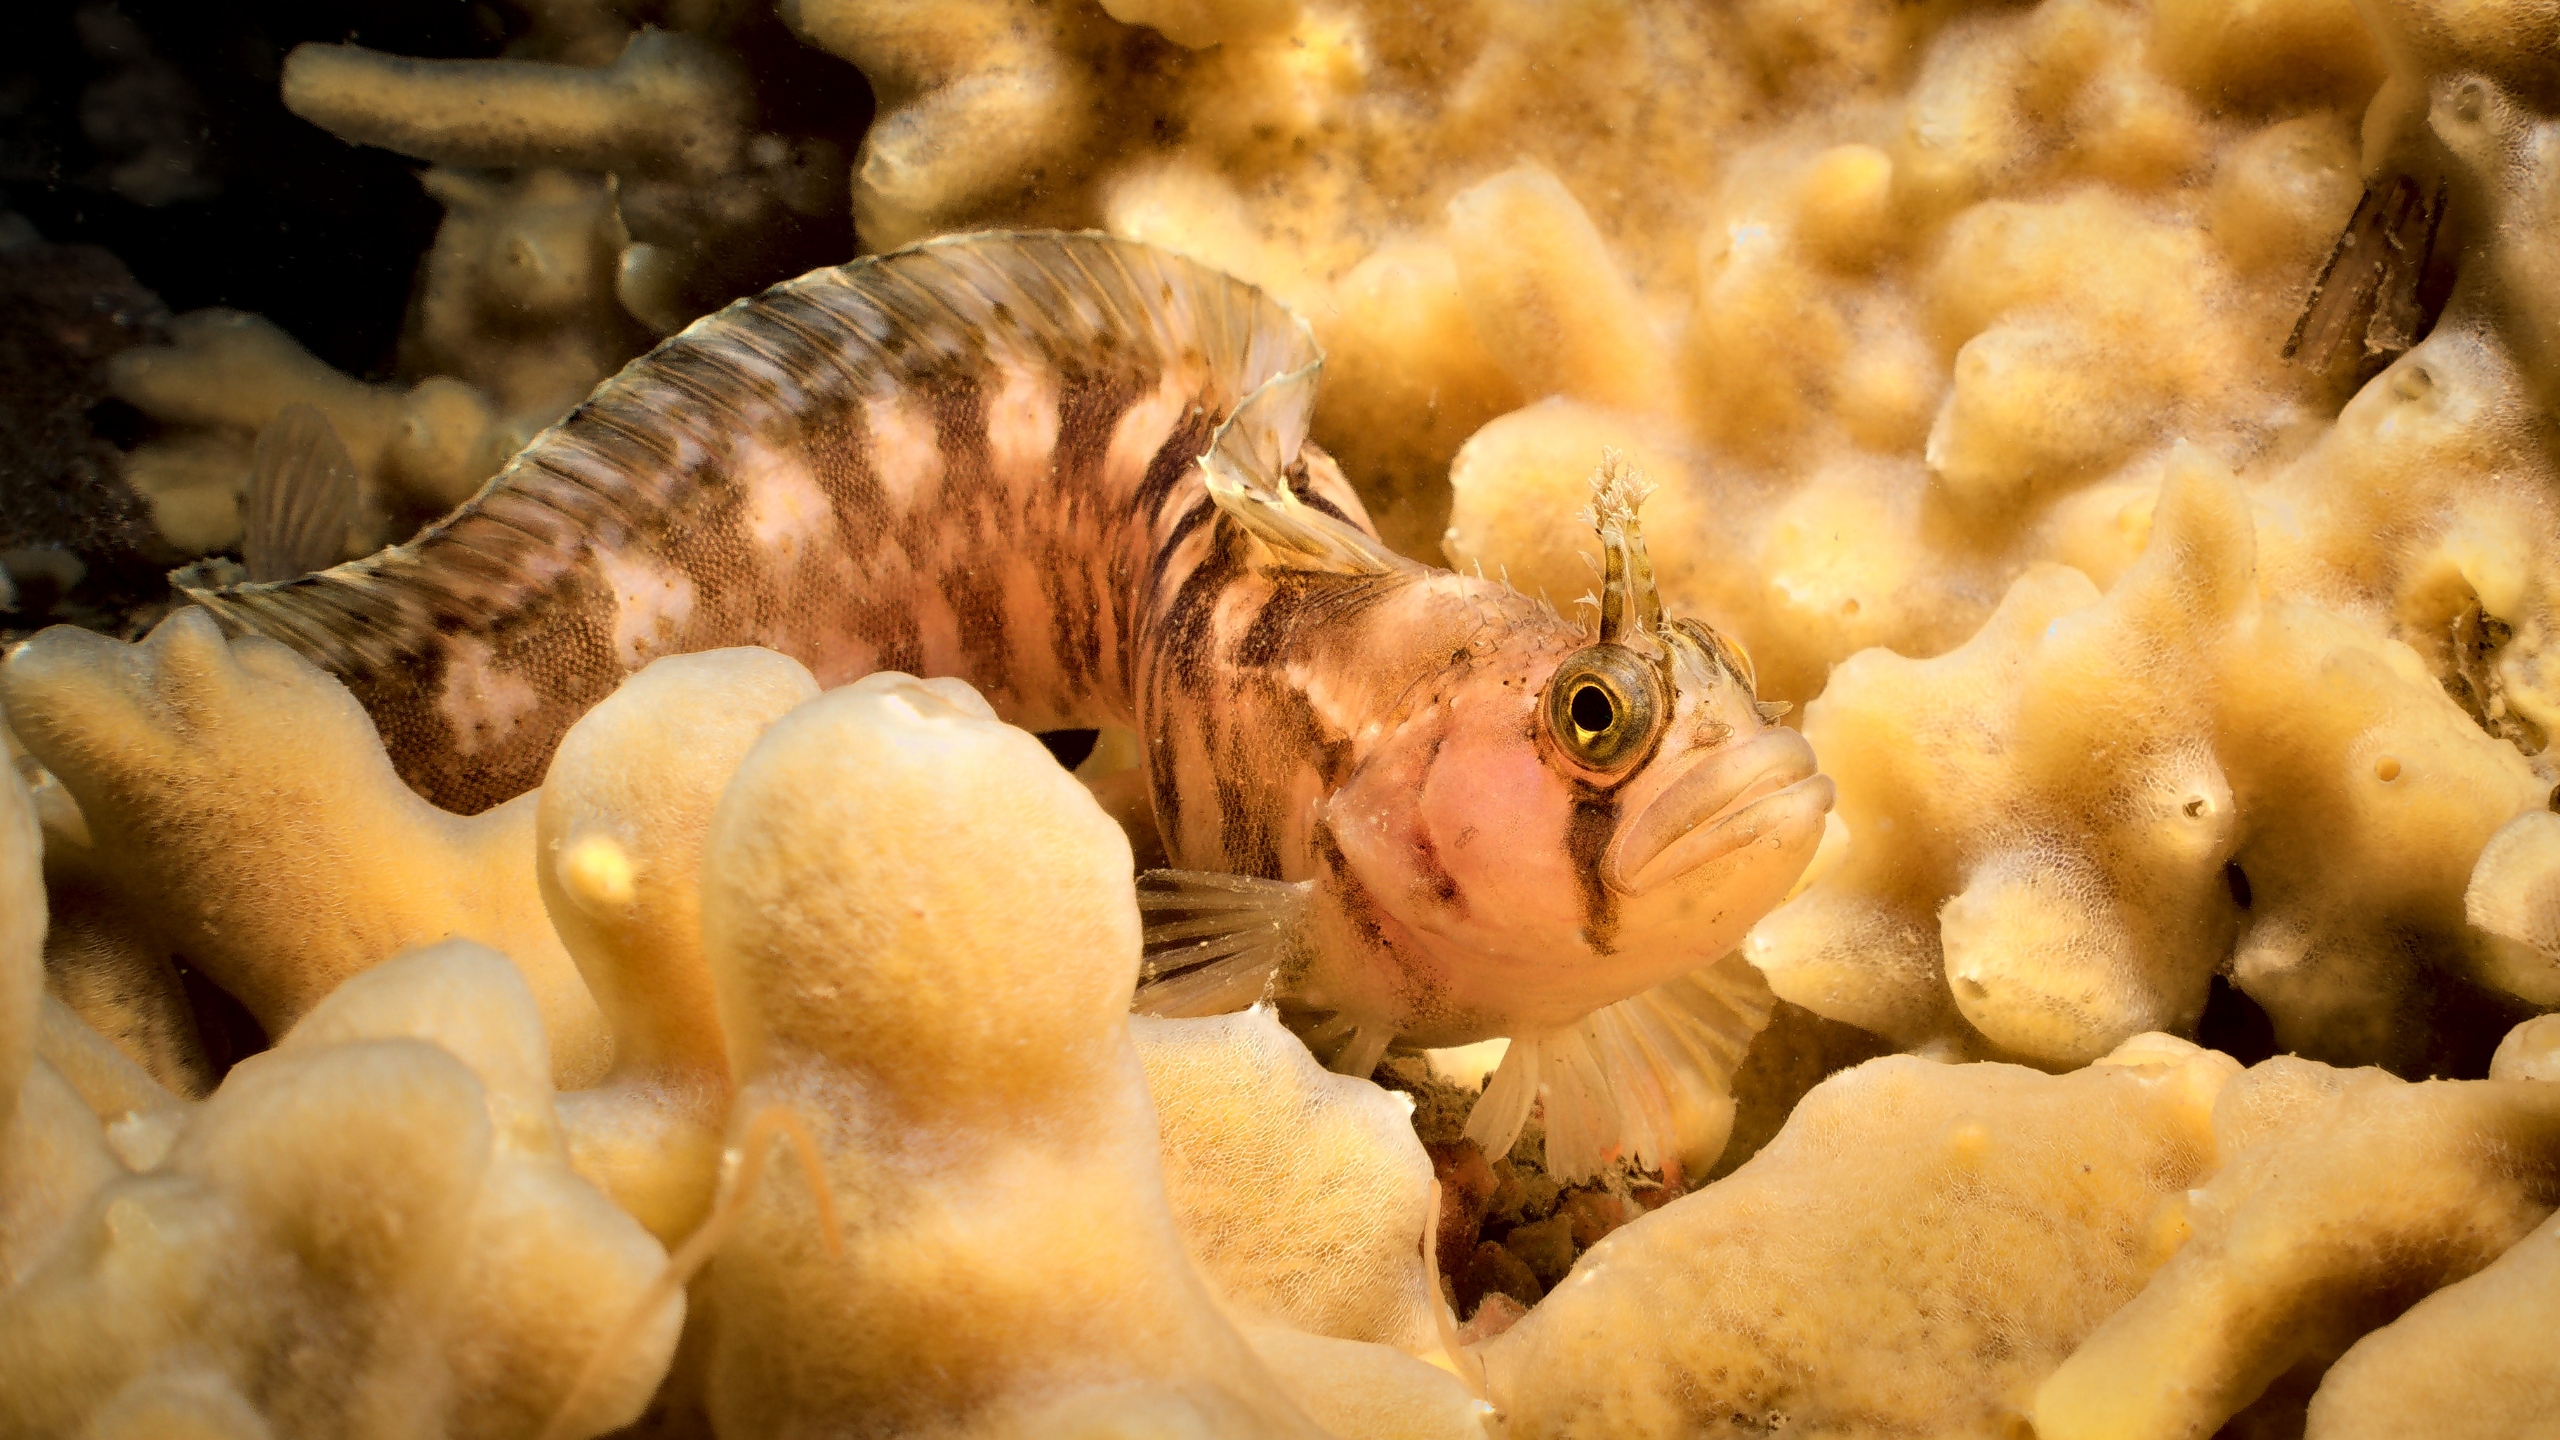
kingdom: Animalia
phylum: Chordata
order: Perciformes
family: Stichaeidae
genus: Chirolophis
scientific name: Chirolophis ascanii
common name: Buskhoved
